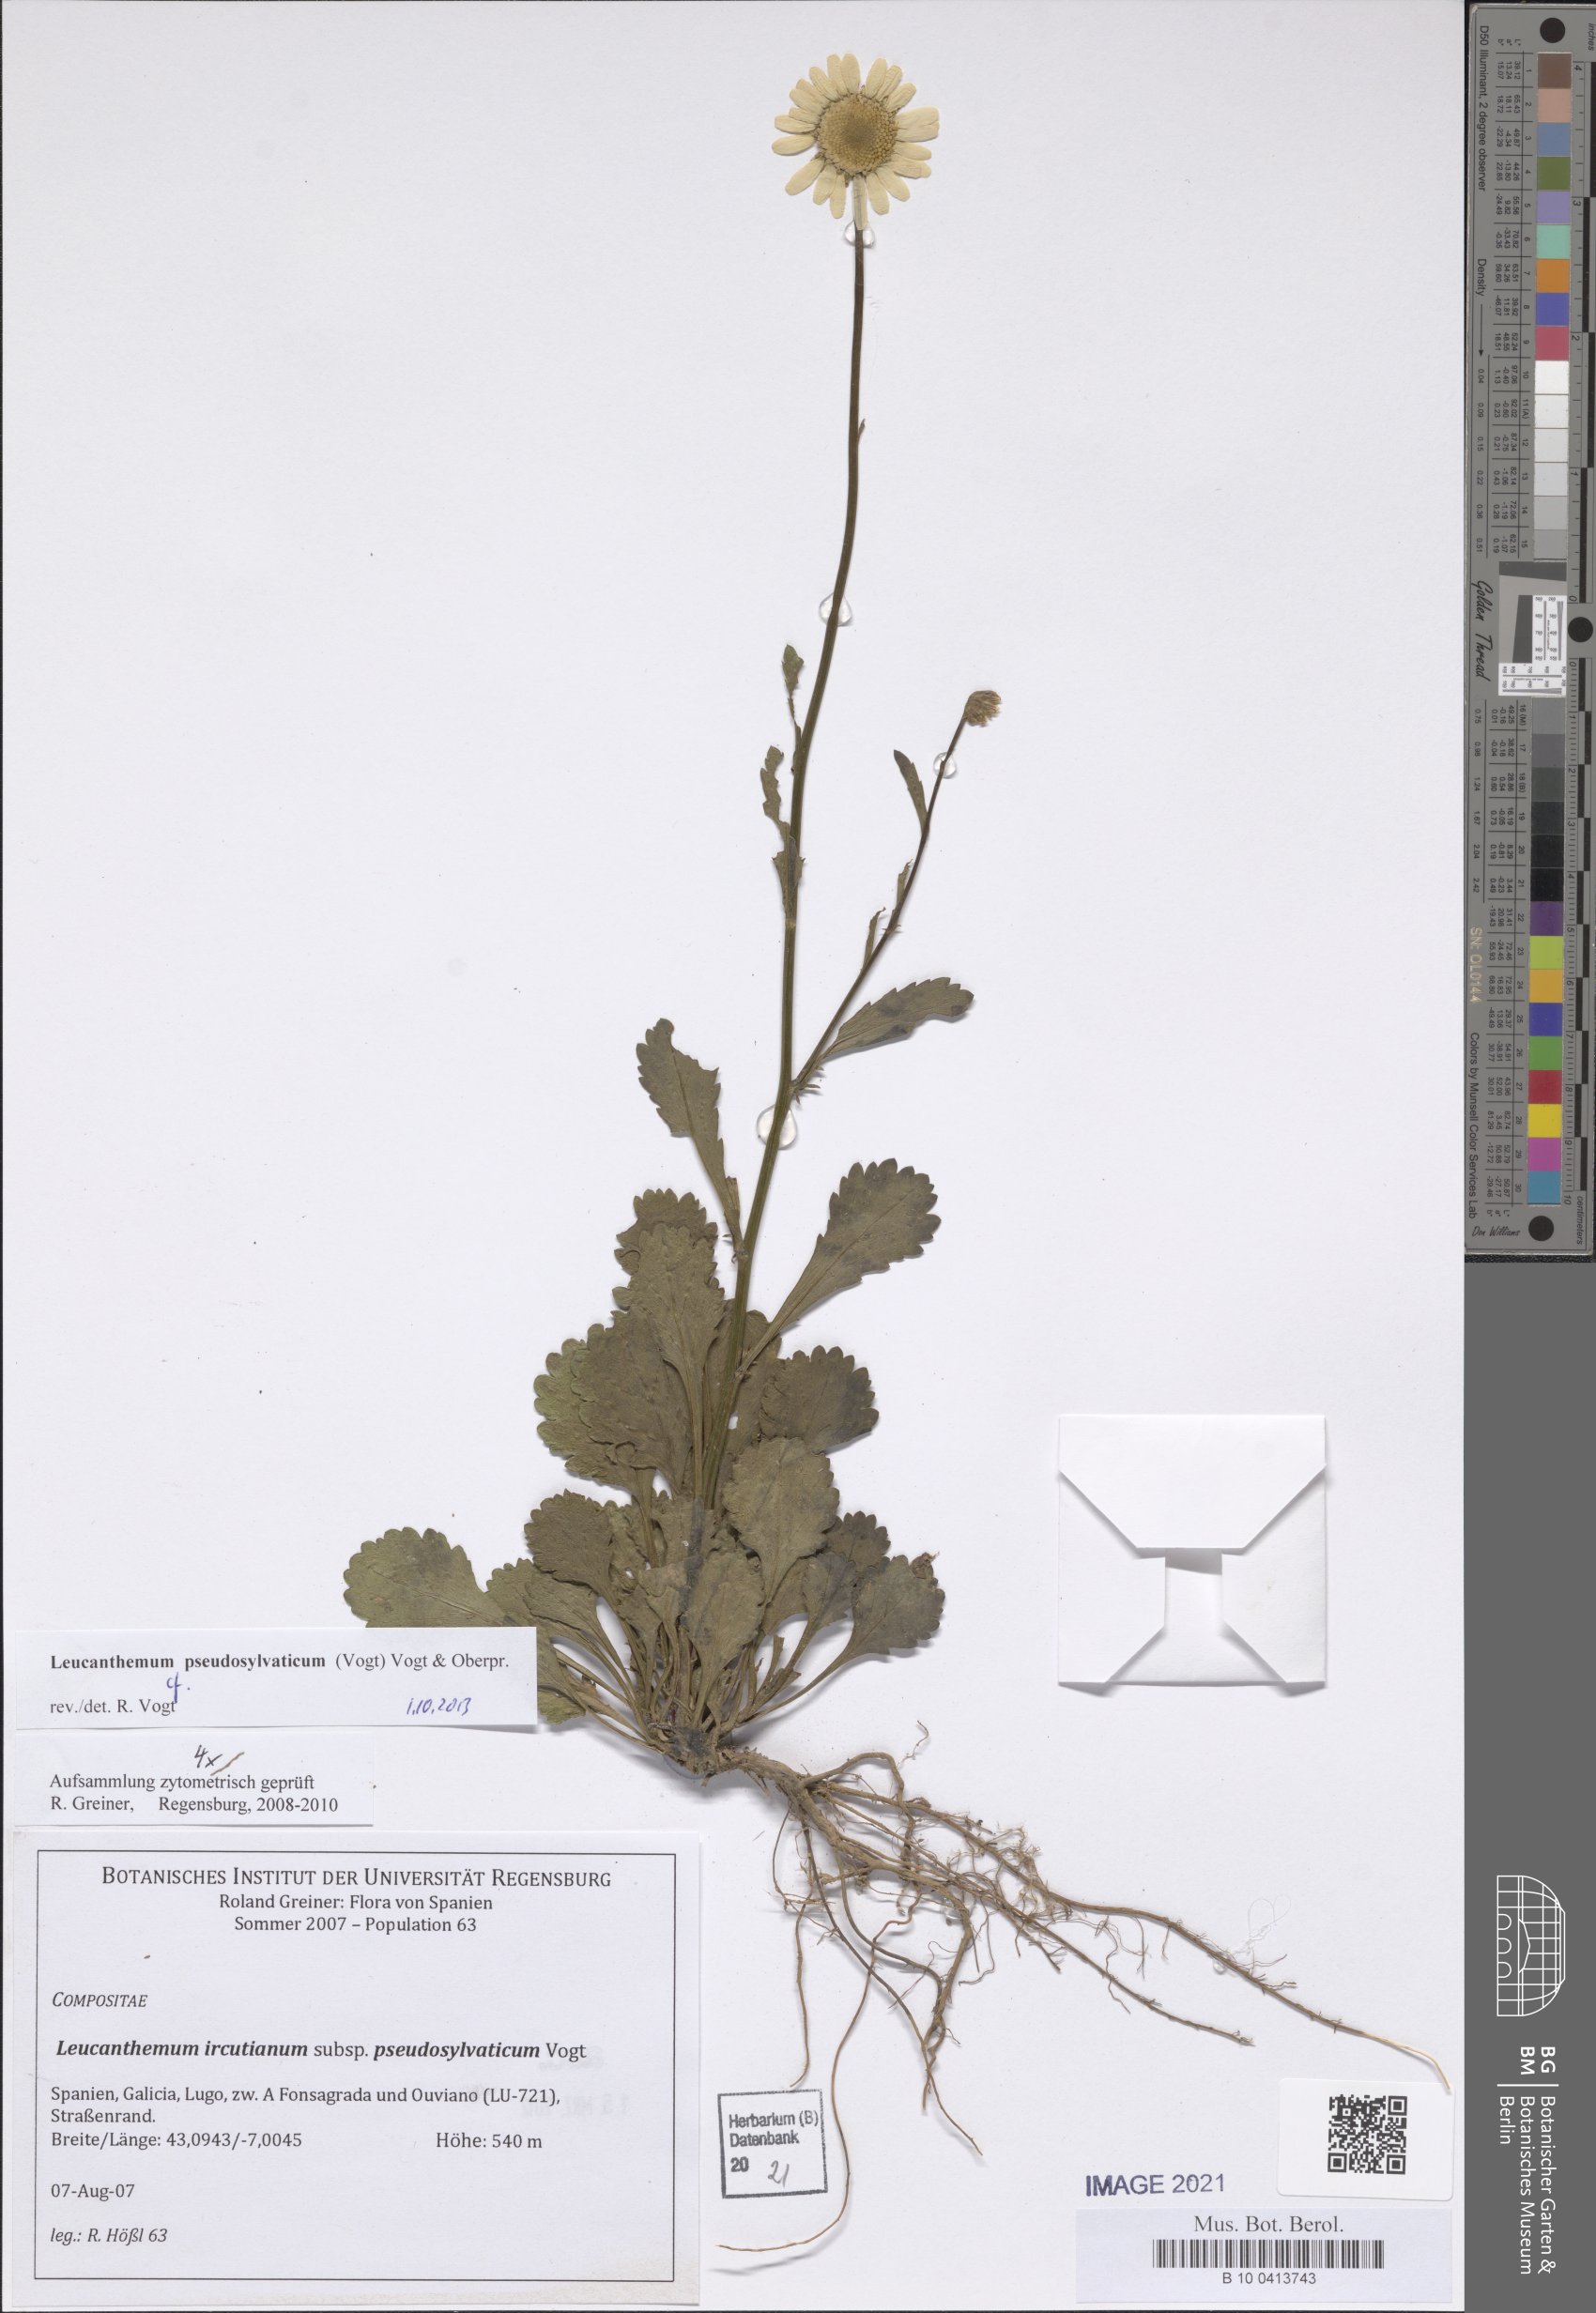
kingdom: Plantae
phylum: Tracheophyta
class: Magnoliopsida
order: Asterales
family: Asteraceae
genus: Leucanthemum
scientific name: Leucanthemum pseudosylvaticum
